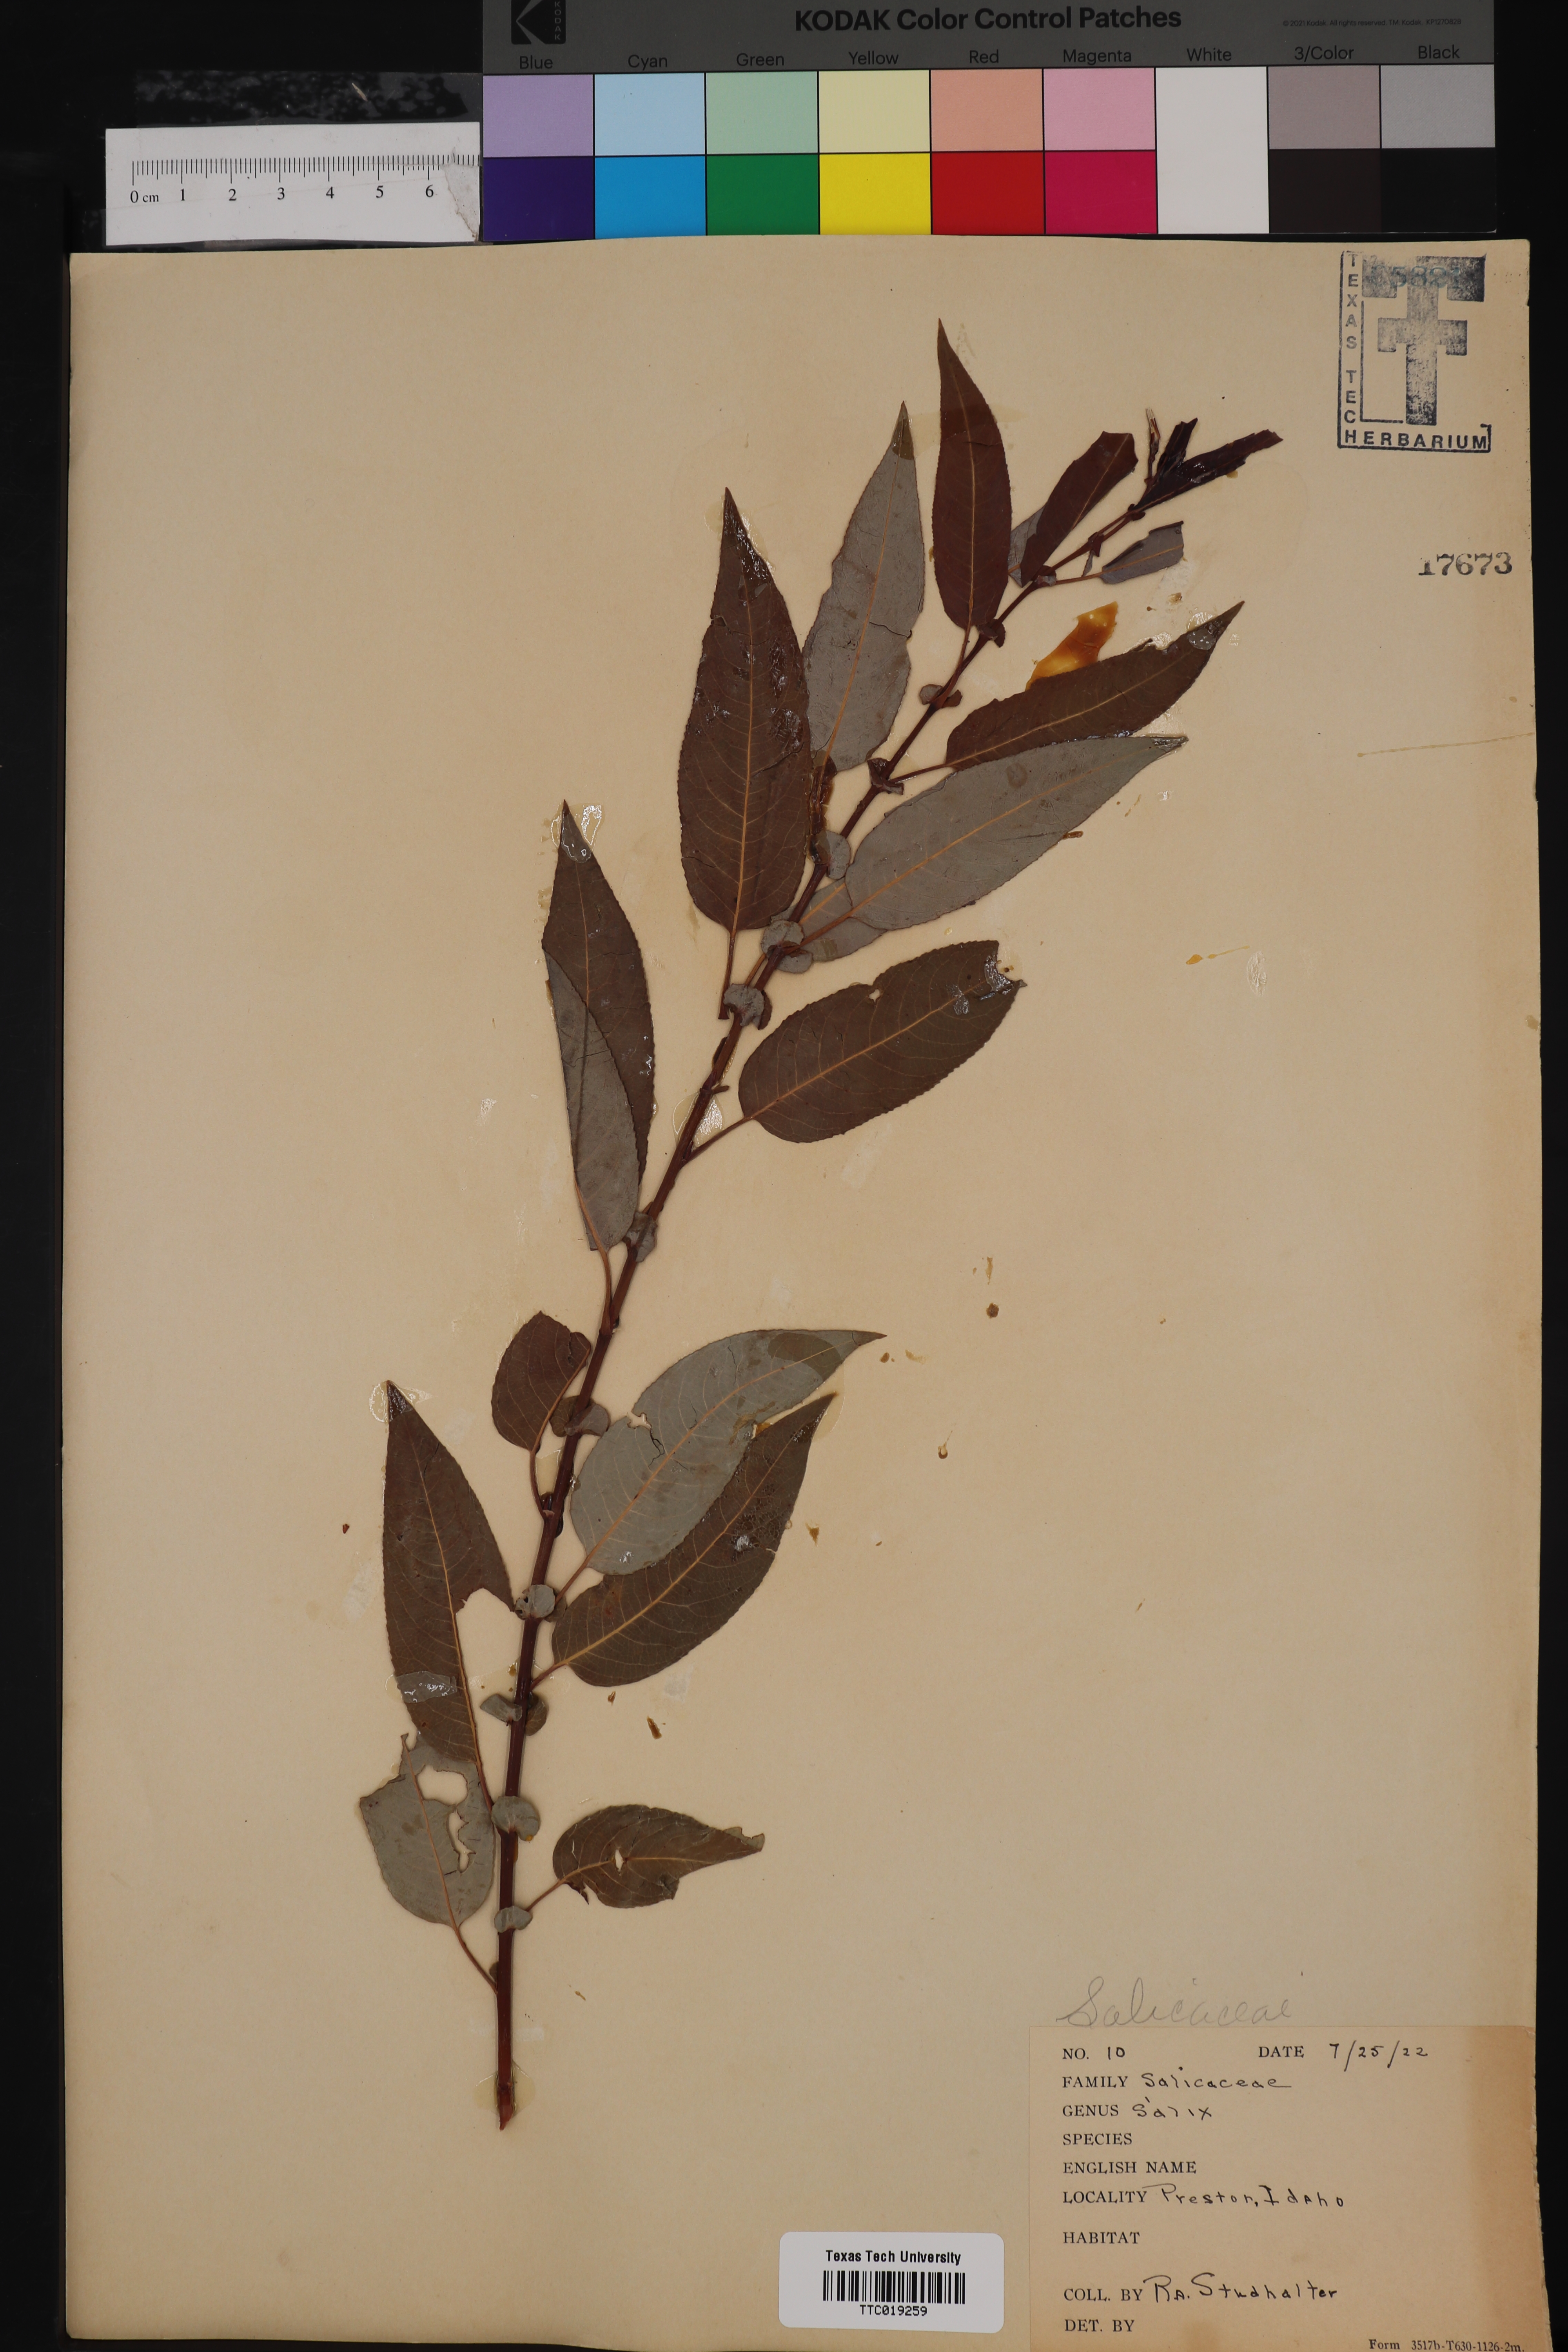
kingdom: Plantae
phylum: Tracheophyta
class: Magnoliopsida
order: Malpighiales
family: Salicaceae
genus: Salix
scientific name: Salix
